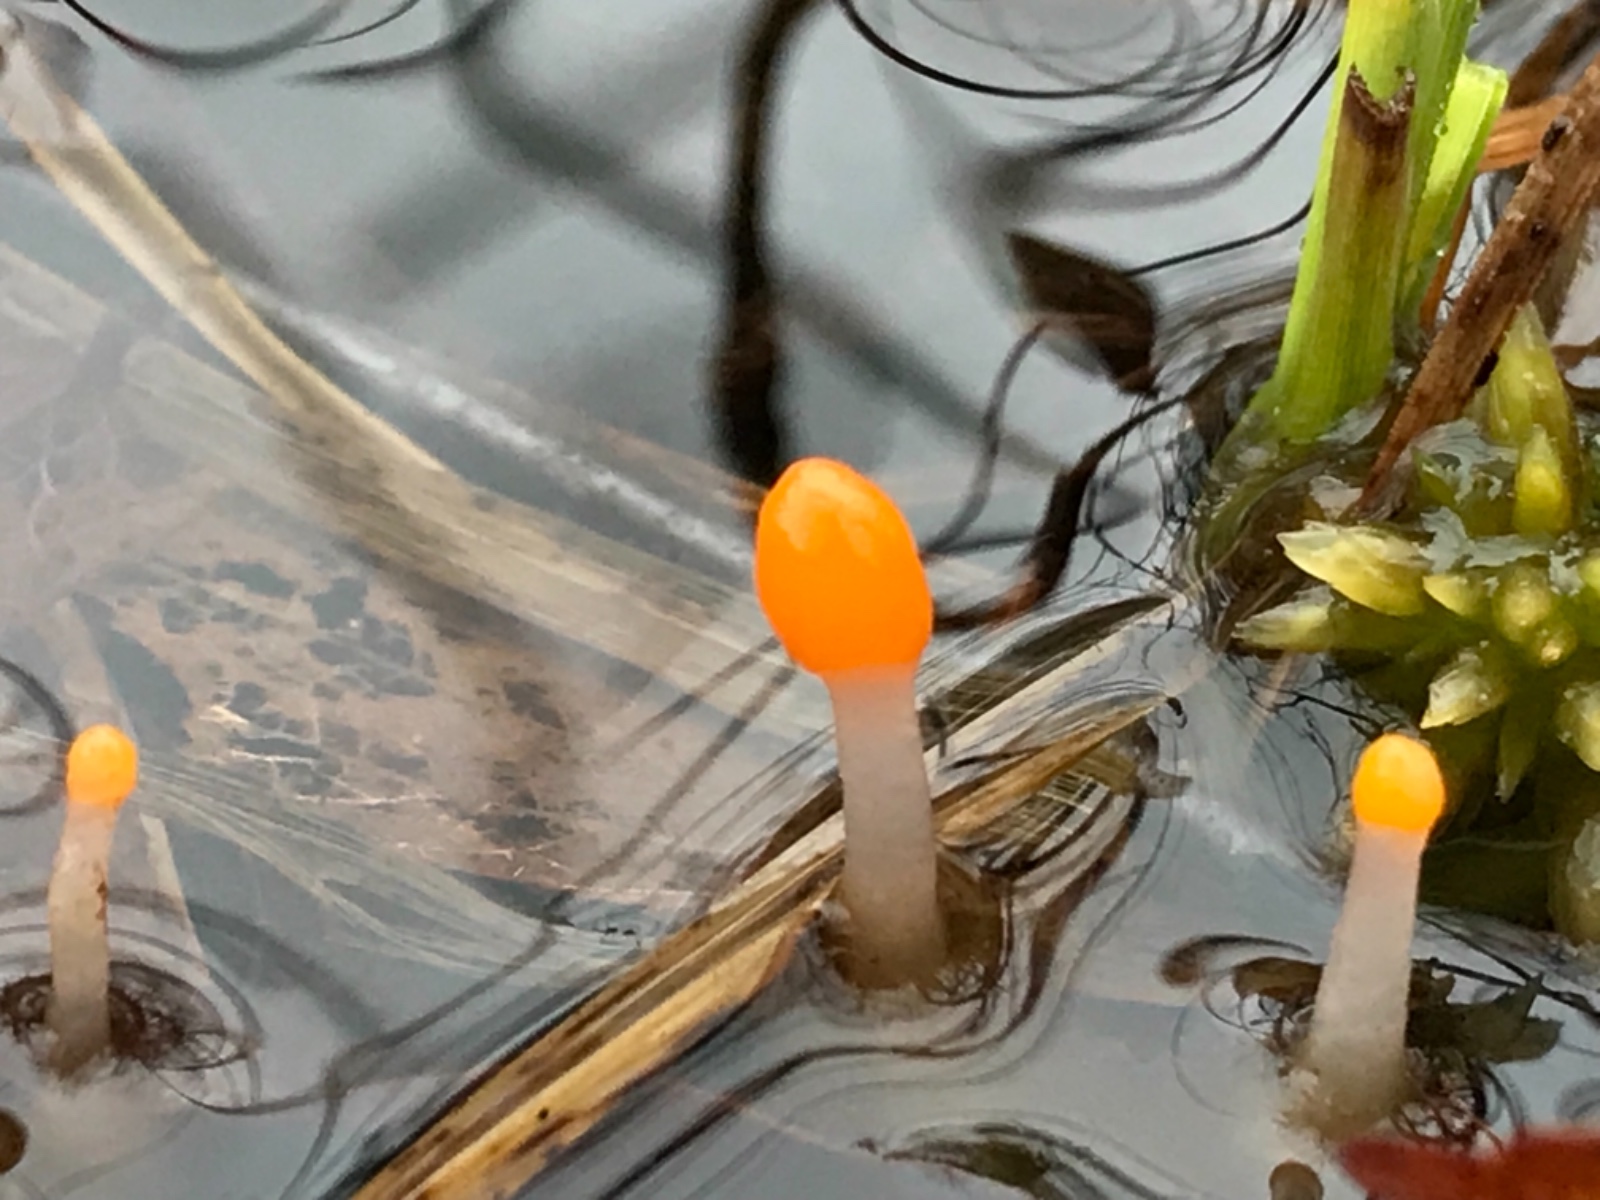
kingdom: Fungi
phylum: Ascomycota
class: Leotiomycetes
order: Helotiales
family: Cenangiaceae
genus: Mitrula
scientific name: Mitrula paludosa
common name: gul nøkketunge
